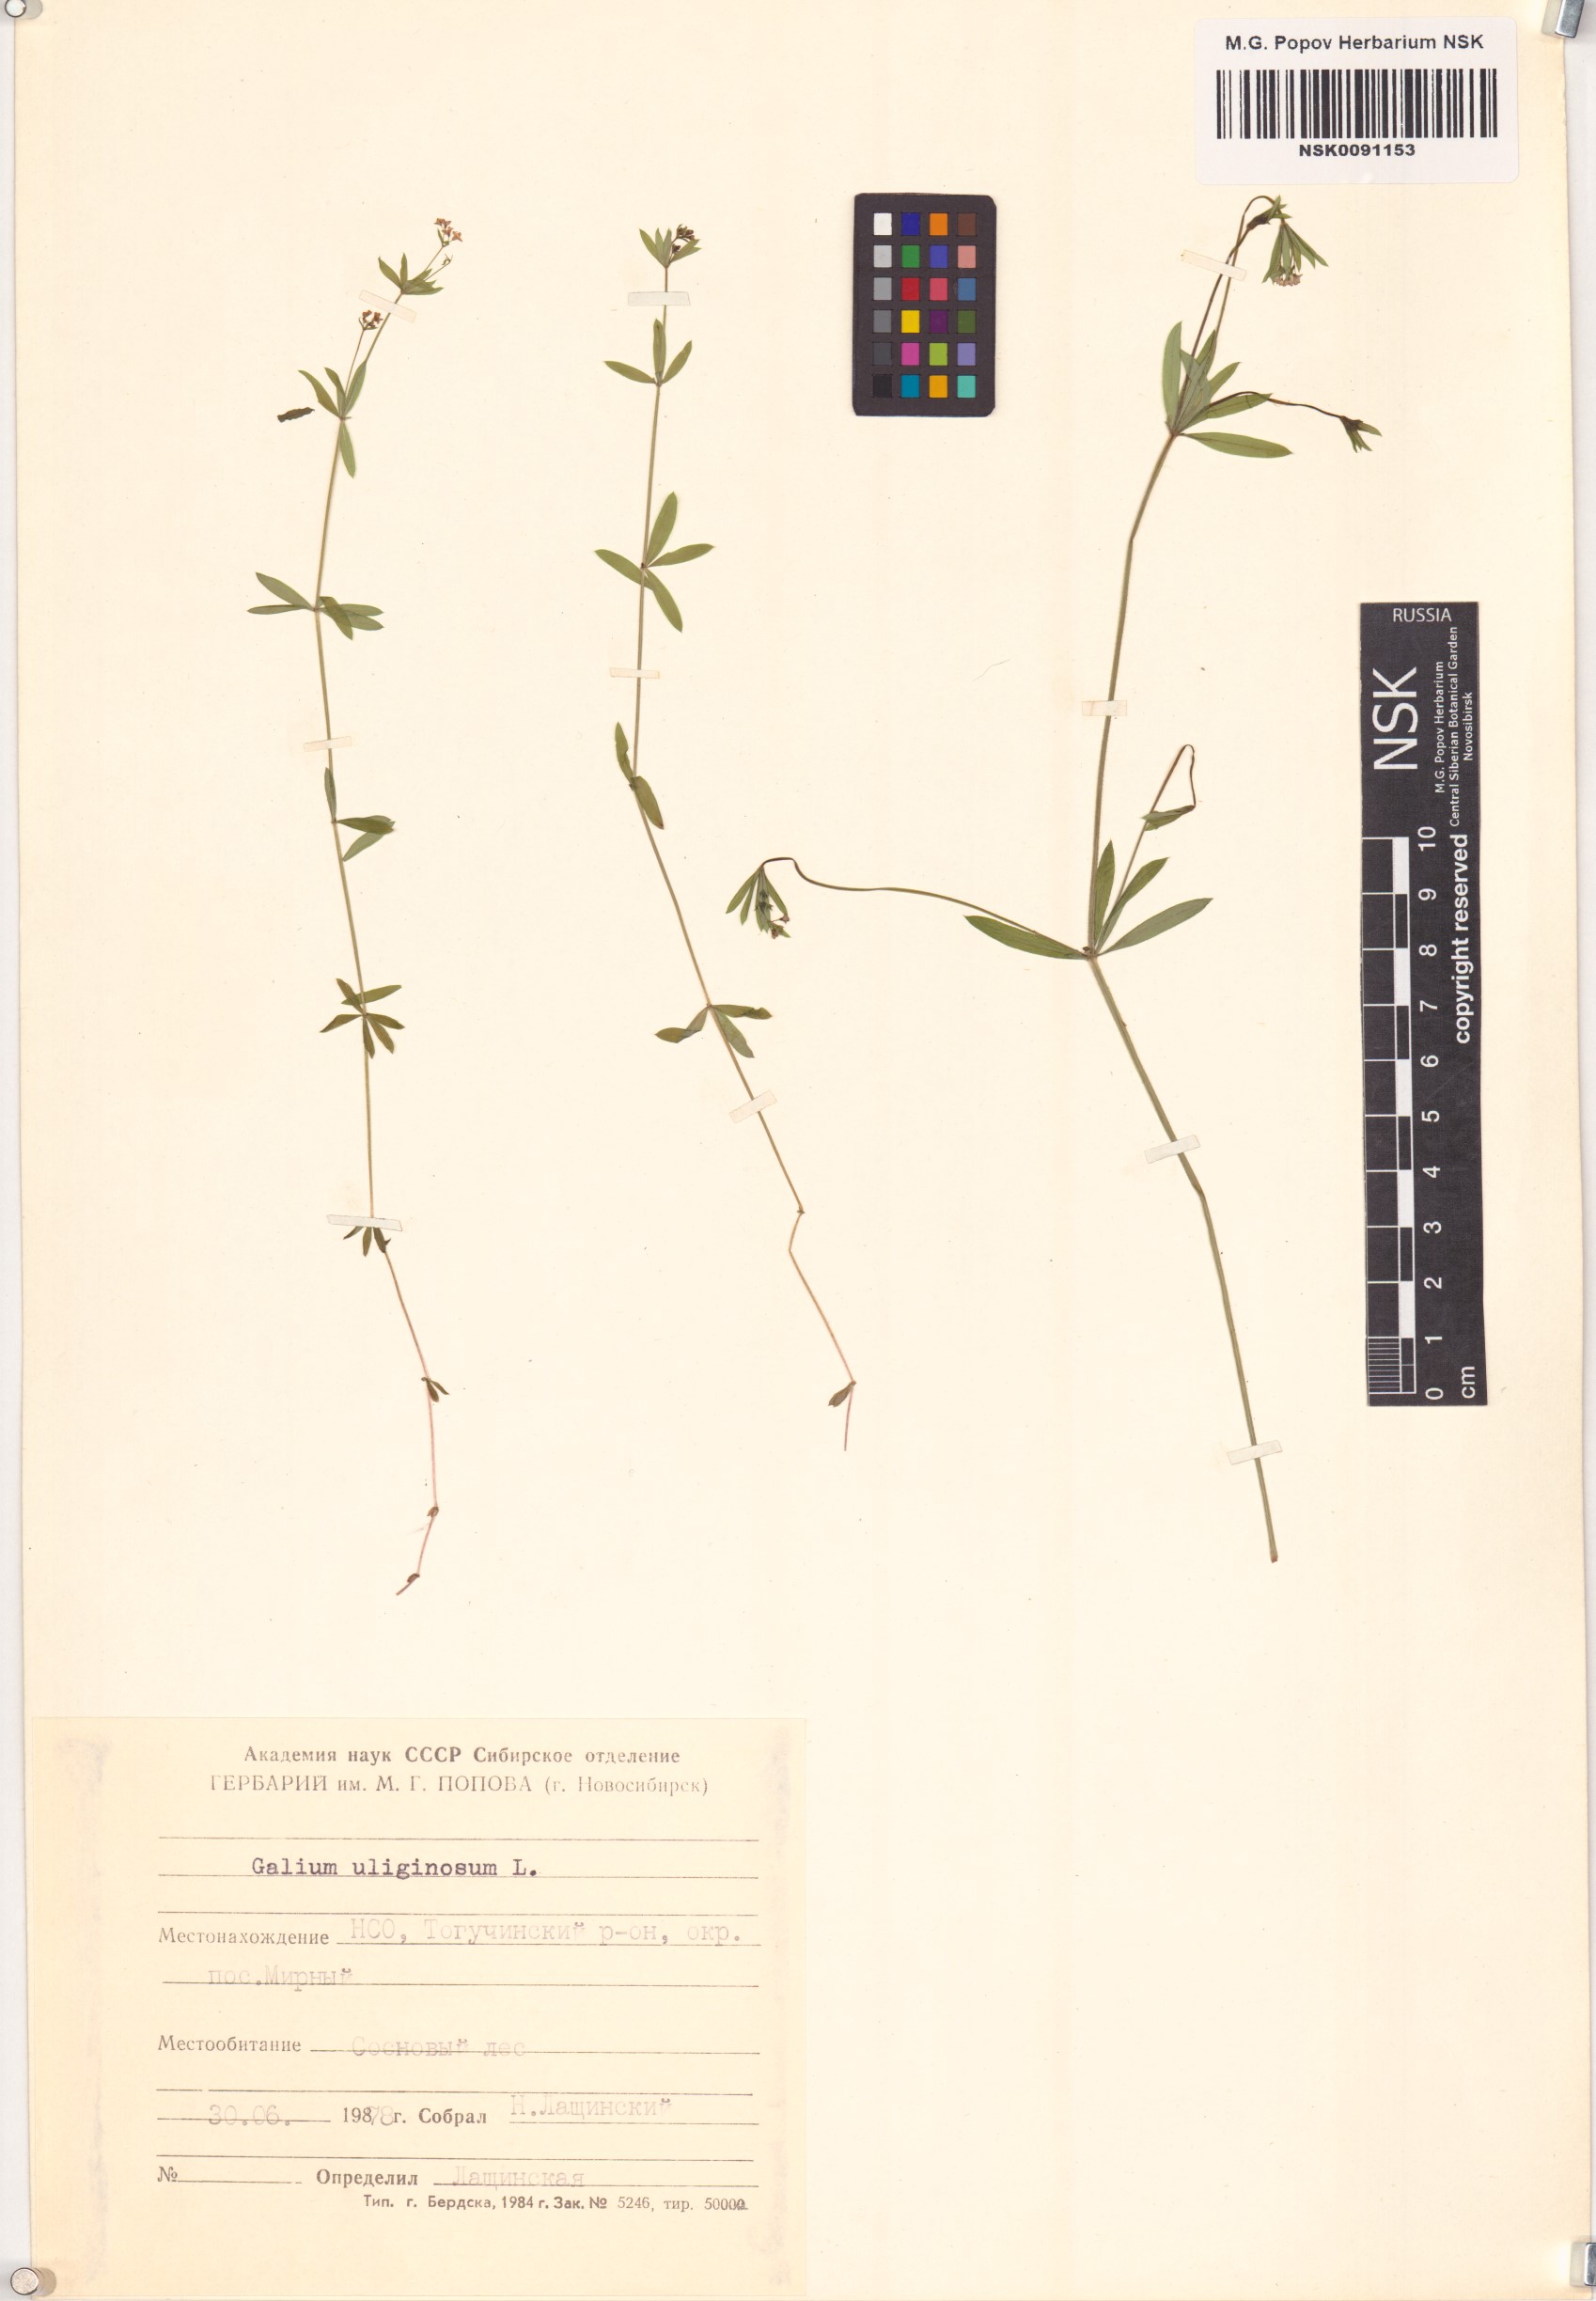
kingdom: Plantae
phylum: Tracheophyta
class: Magnoliopsida
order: Gentianales
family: Rubiaceae
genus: Galium
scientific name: Galium uliginosum
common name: Fen bedstraw
